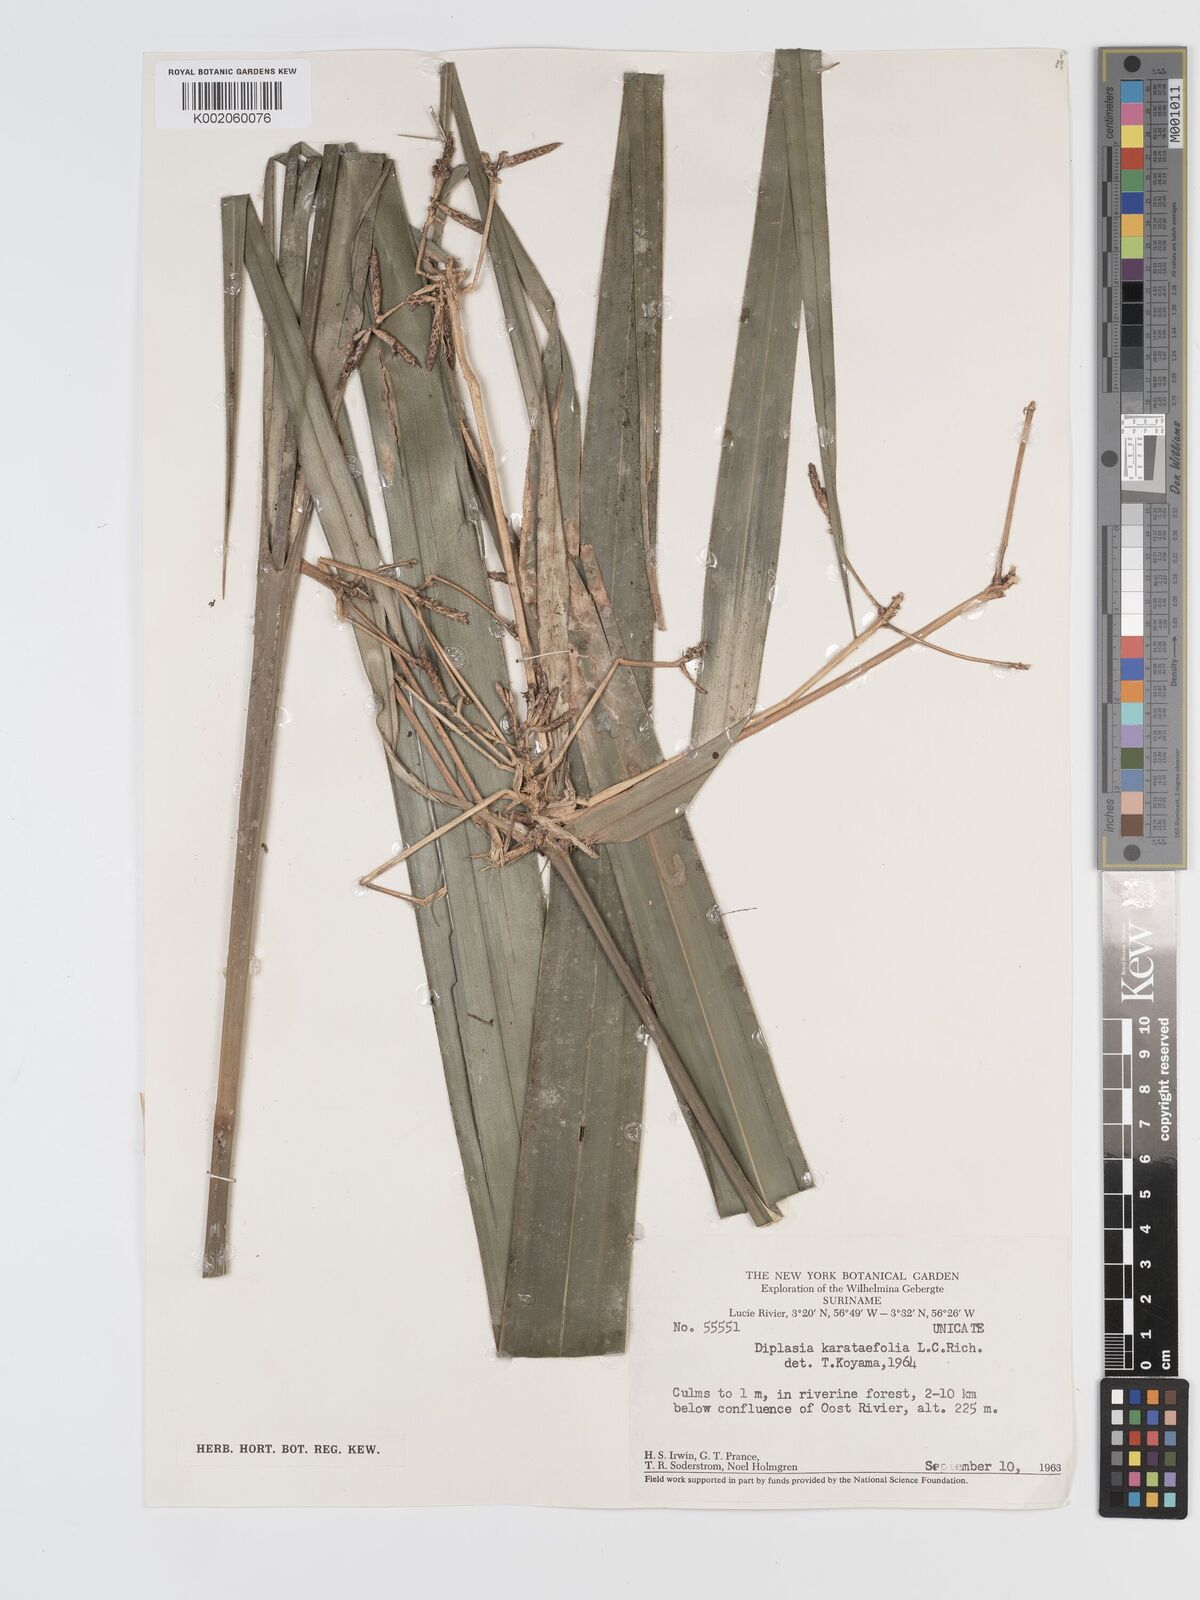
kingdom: Plantae
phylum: Tracheophyta
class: Liliopsida
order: Poales
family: Cyperaceae
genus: Diplasia
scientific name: Diplasia karatifolia
